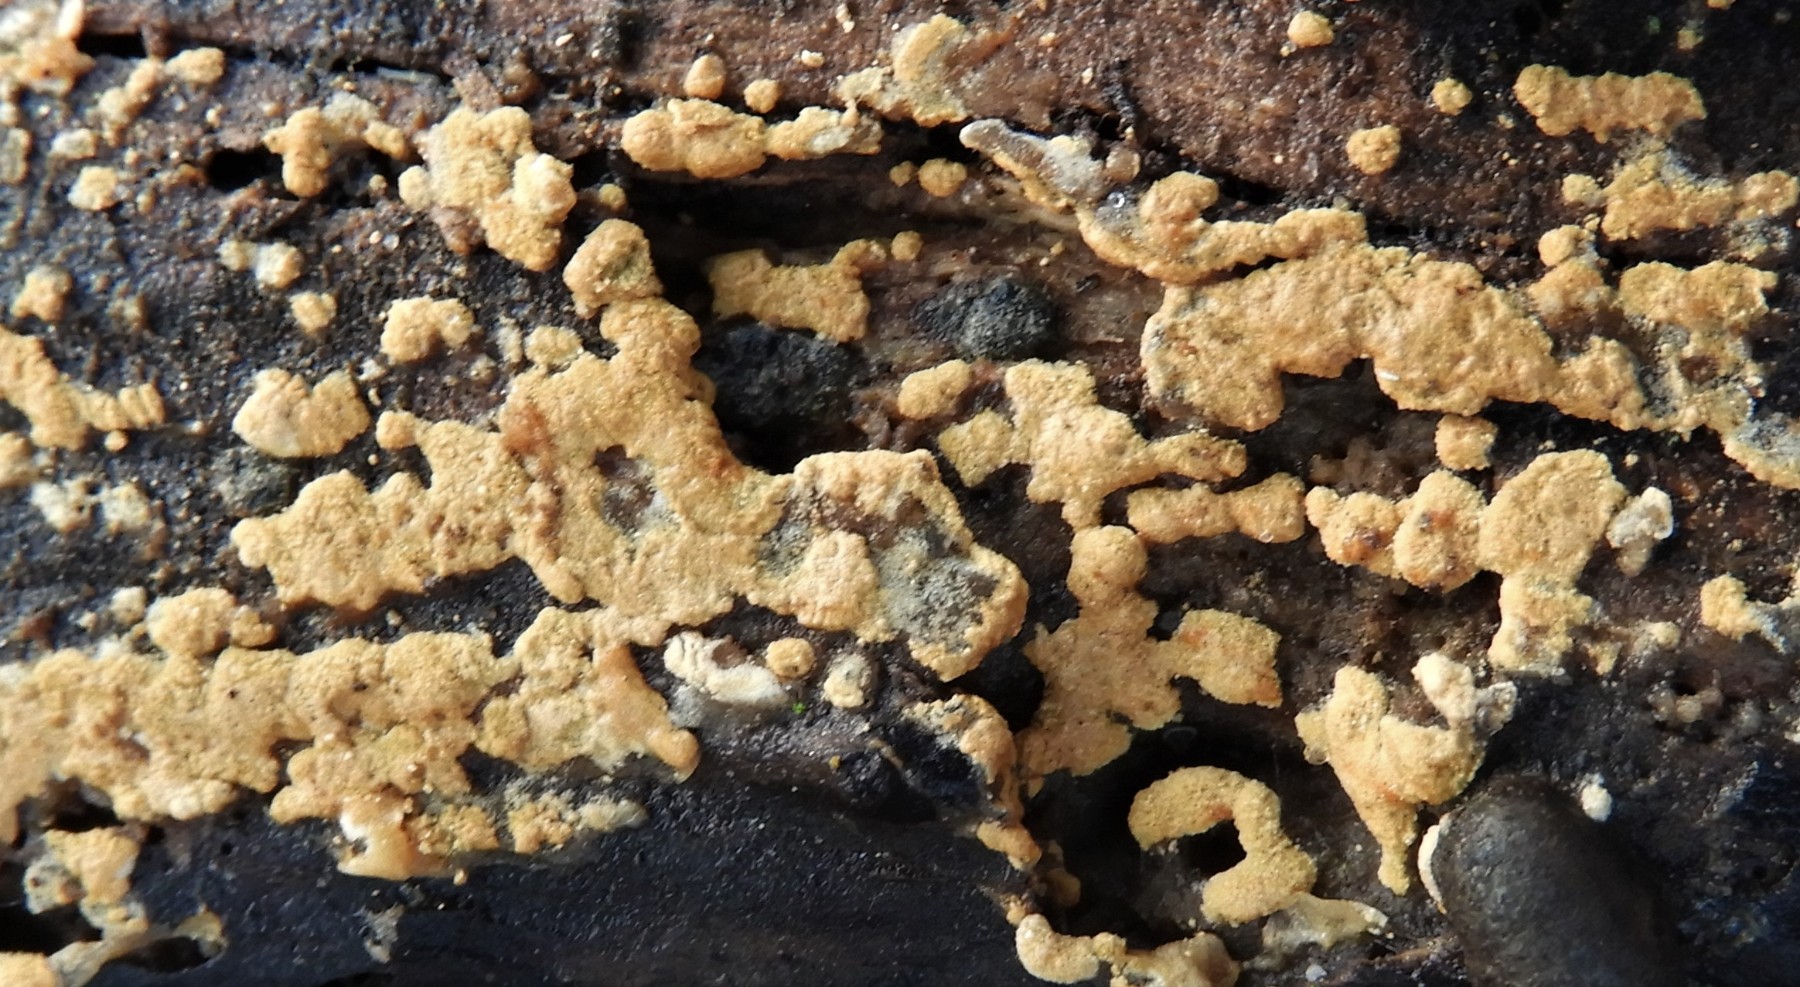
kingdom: Fungi
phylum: Basidiomycota
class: Agaricomycetes
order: Cantharellales
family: Botryobasidiaceae
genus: Botryobasidium
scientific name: Botryobasidium aureum
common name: gylden spindhinde
